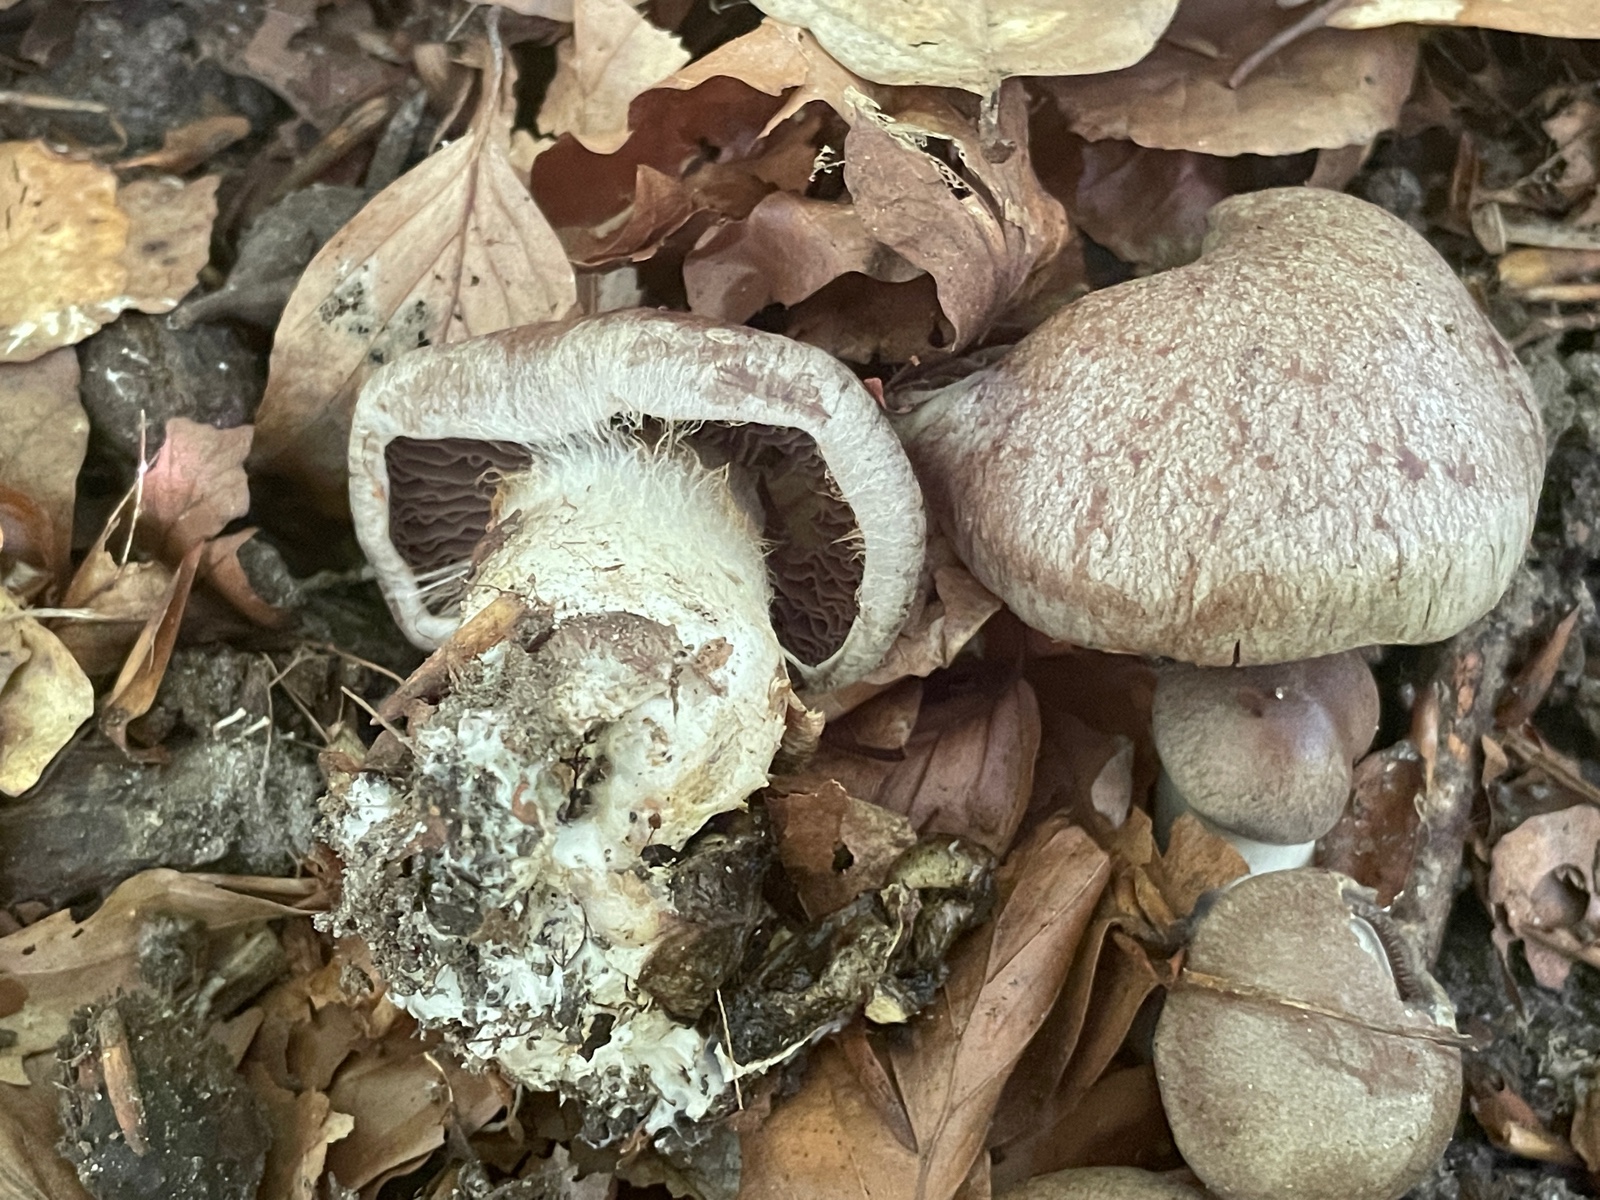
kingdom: Fungi
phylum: Basidiomycota
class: Agaricomycetes
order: Agaricales
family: Cortinariaceae
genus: Cortinarius
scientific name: Cortinarius
